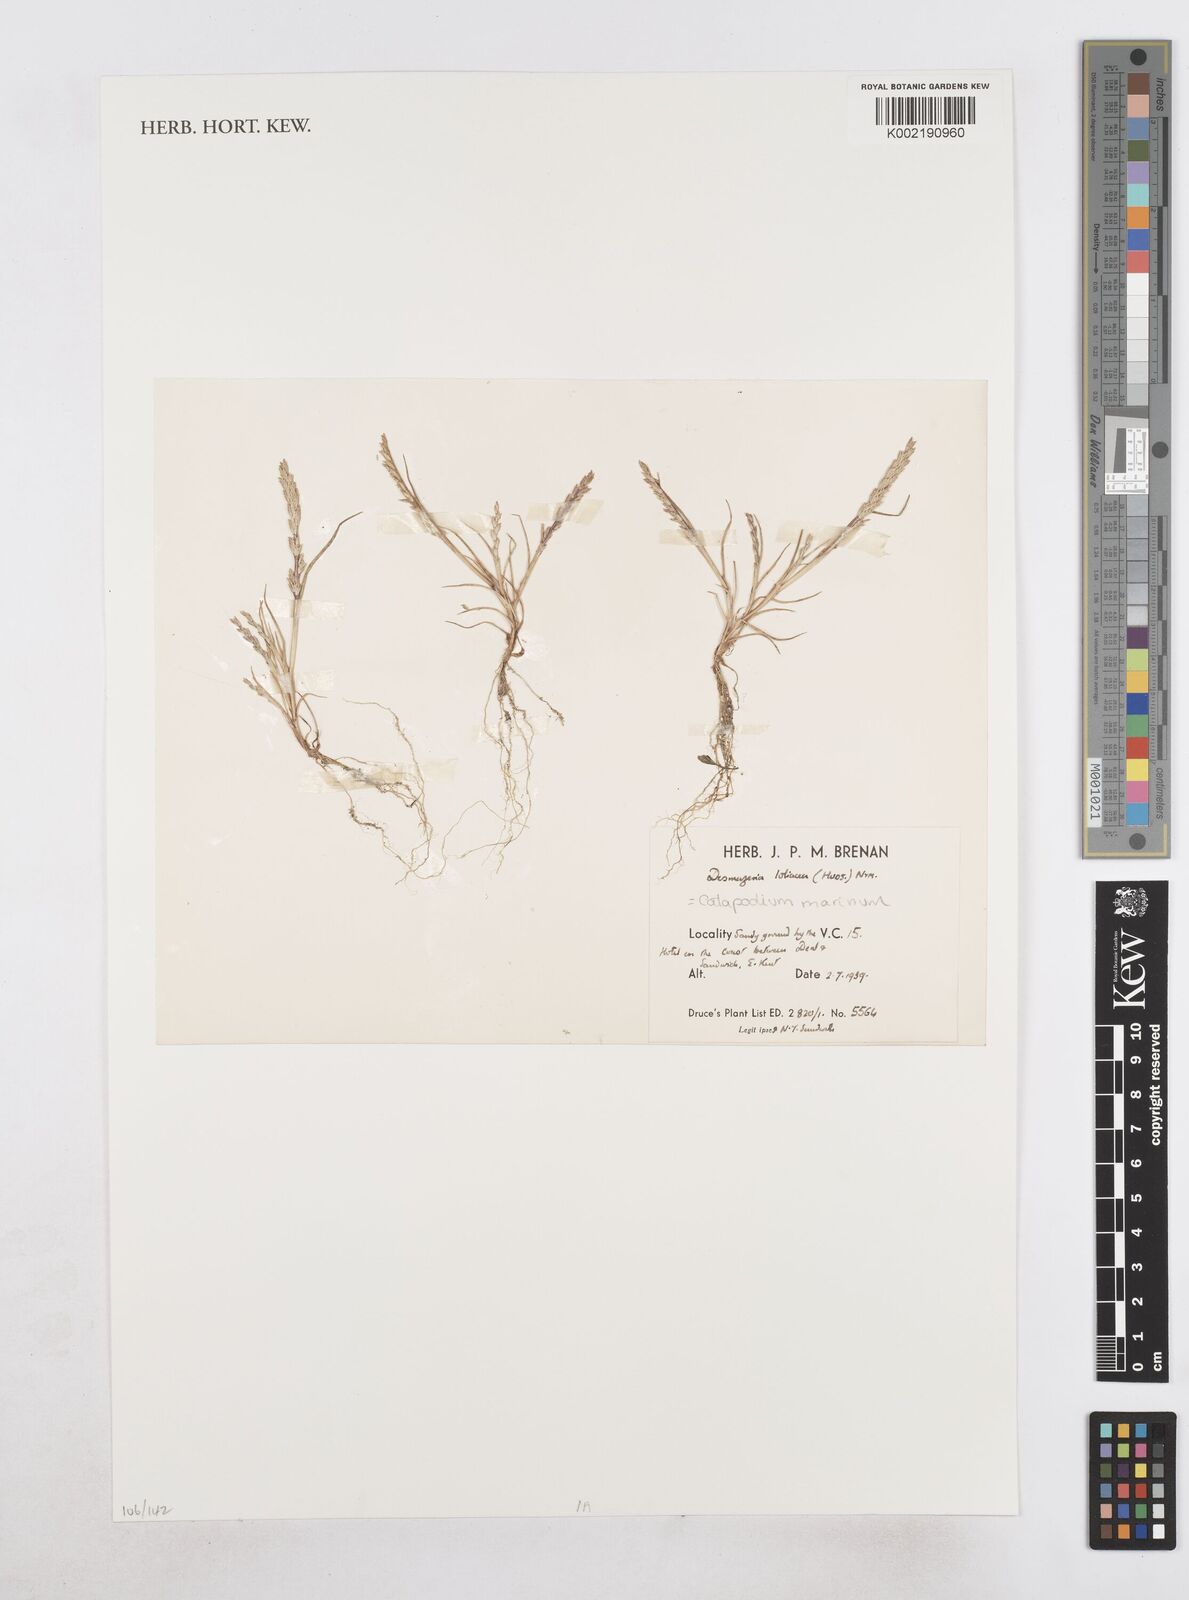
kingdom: Plantae
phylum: Tracheophyta
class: Liliopsida
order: Poales
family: Poaceae
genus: Catapodium
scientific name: Catapodium marinum
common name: Sea fern-grass
